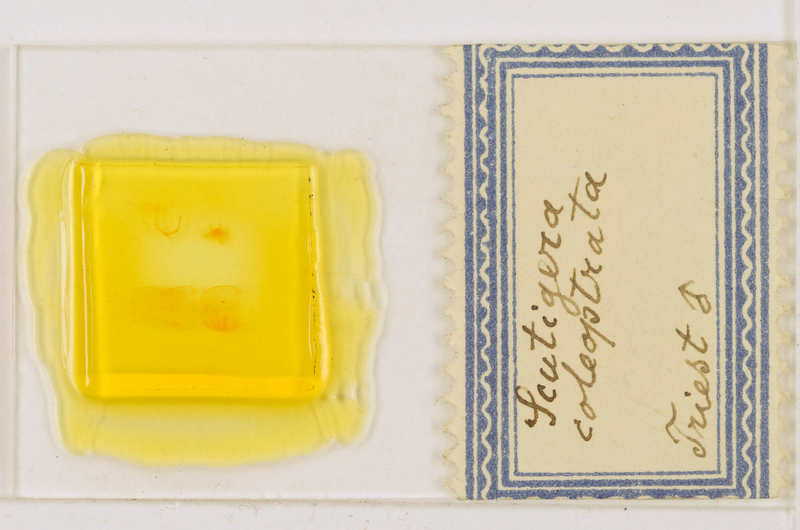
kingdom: Animalia
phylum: Arthropoda
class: Chilopoda
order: Scutigeromorpha
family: Scutigeridae
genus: Scutigera
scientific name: Scutigera coleoptrata
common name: House centipede
